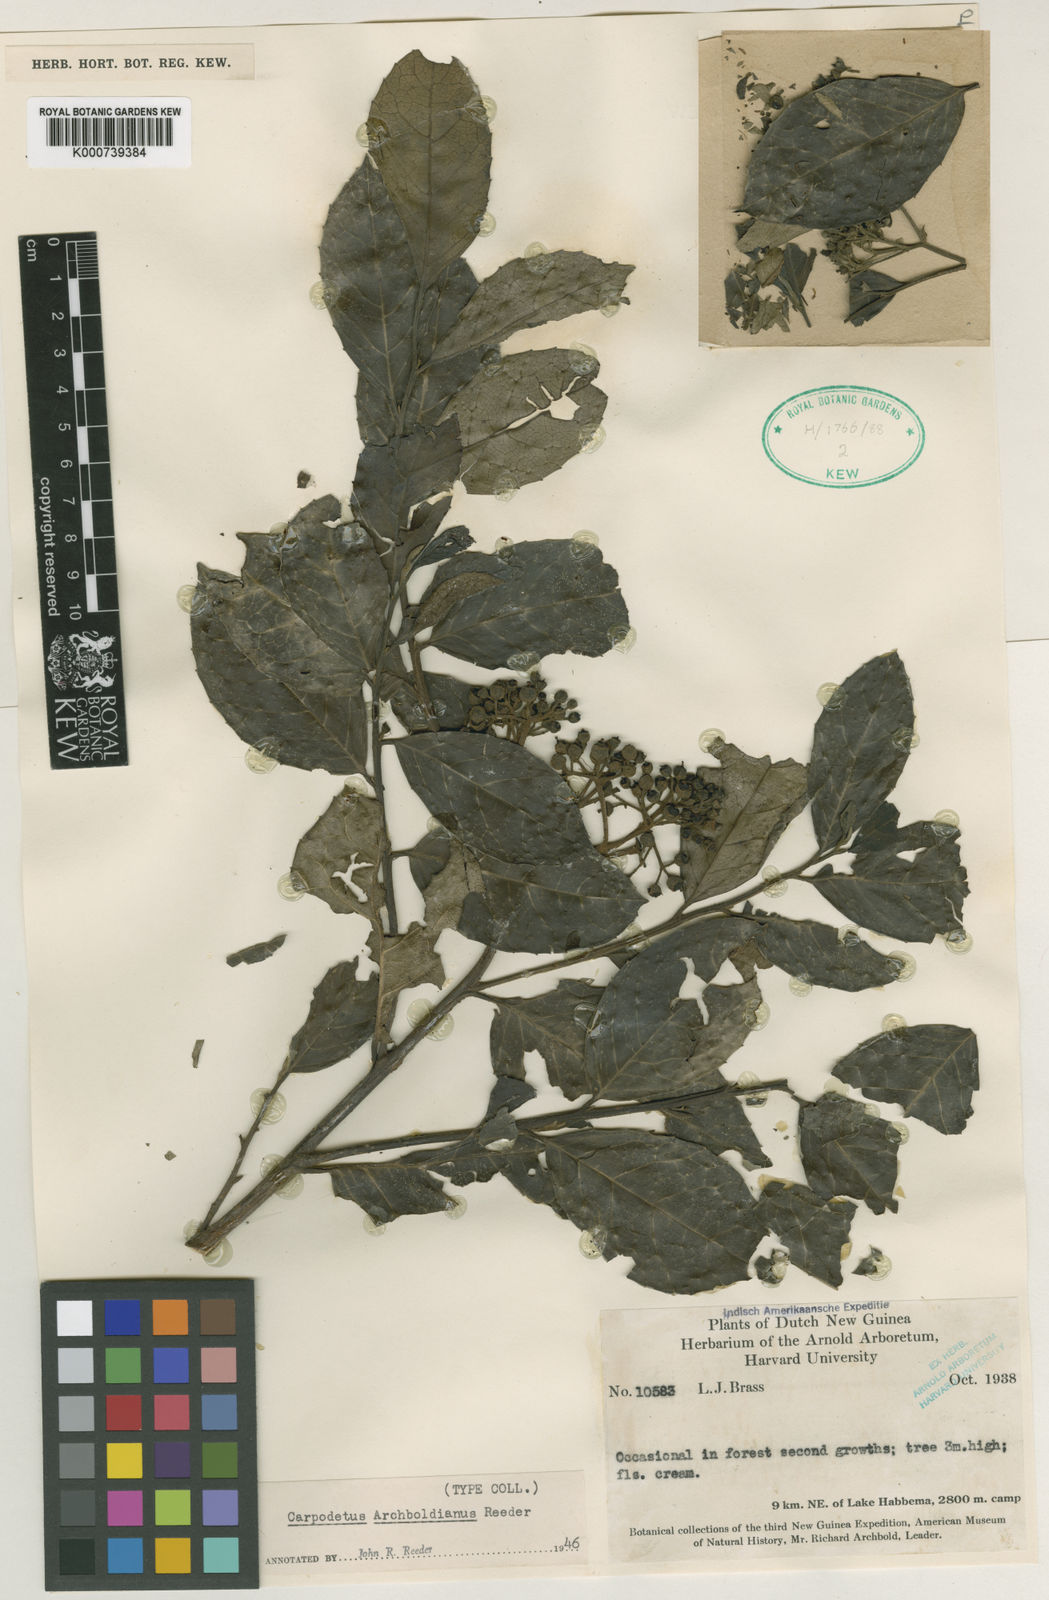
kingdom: Plantae
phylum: Tracheophyta
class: Magnoliopsida
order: Asterales
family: Rousseaceae
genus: Carpodetus
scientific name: Carpodetus arboreus
